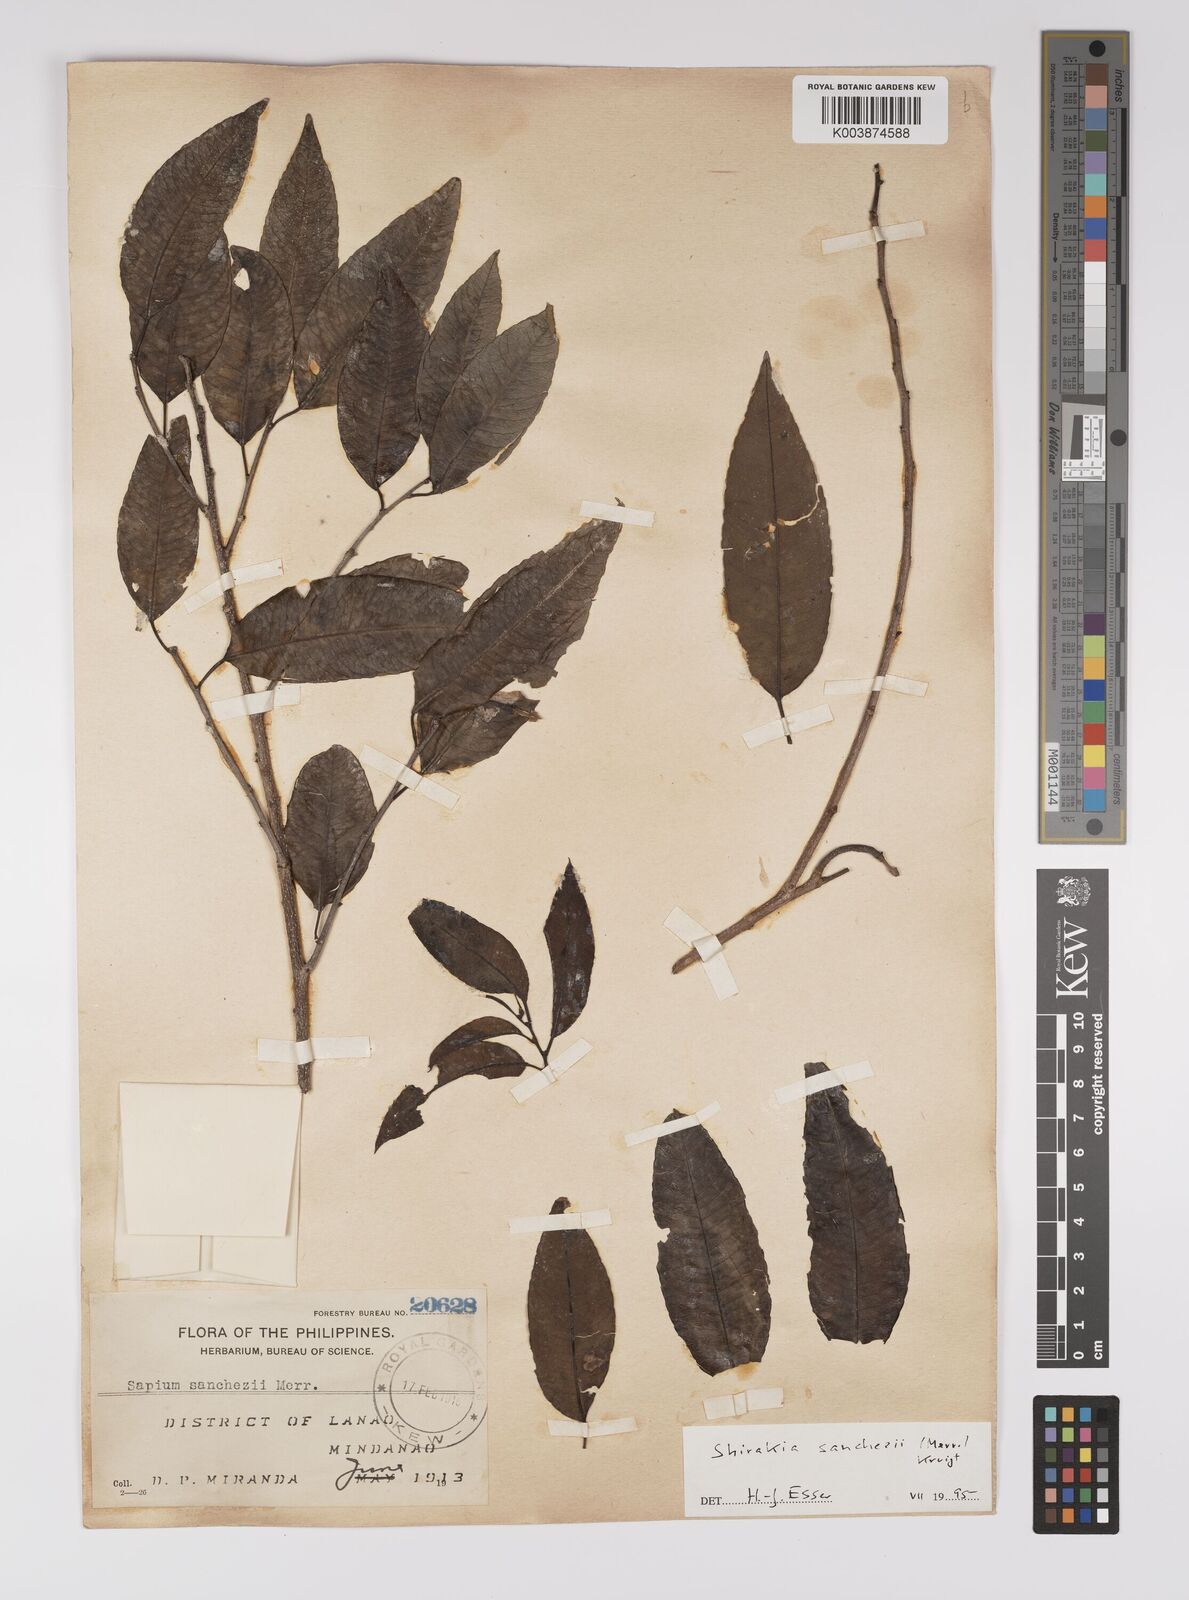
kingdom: Plantae
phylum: Tracheophyta
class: Magnoliopsida
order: Malpighiales
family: Euphorbiaceae
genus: Shirakiopsis
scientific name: Shirakiopsis sanchezii
